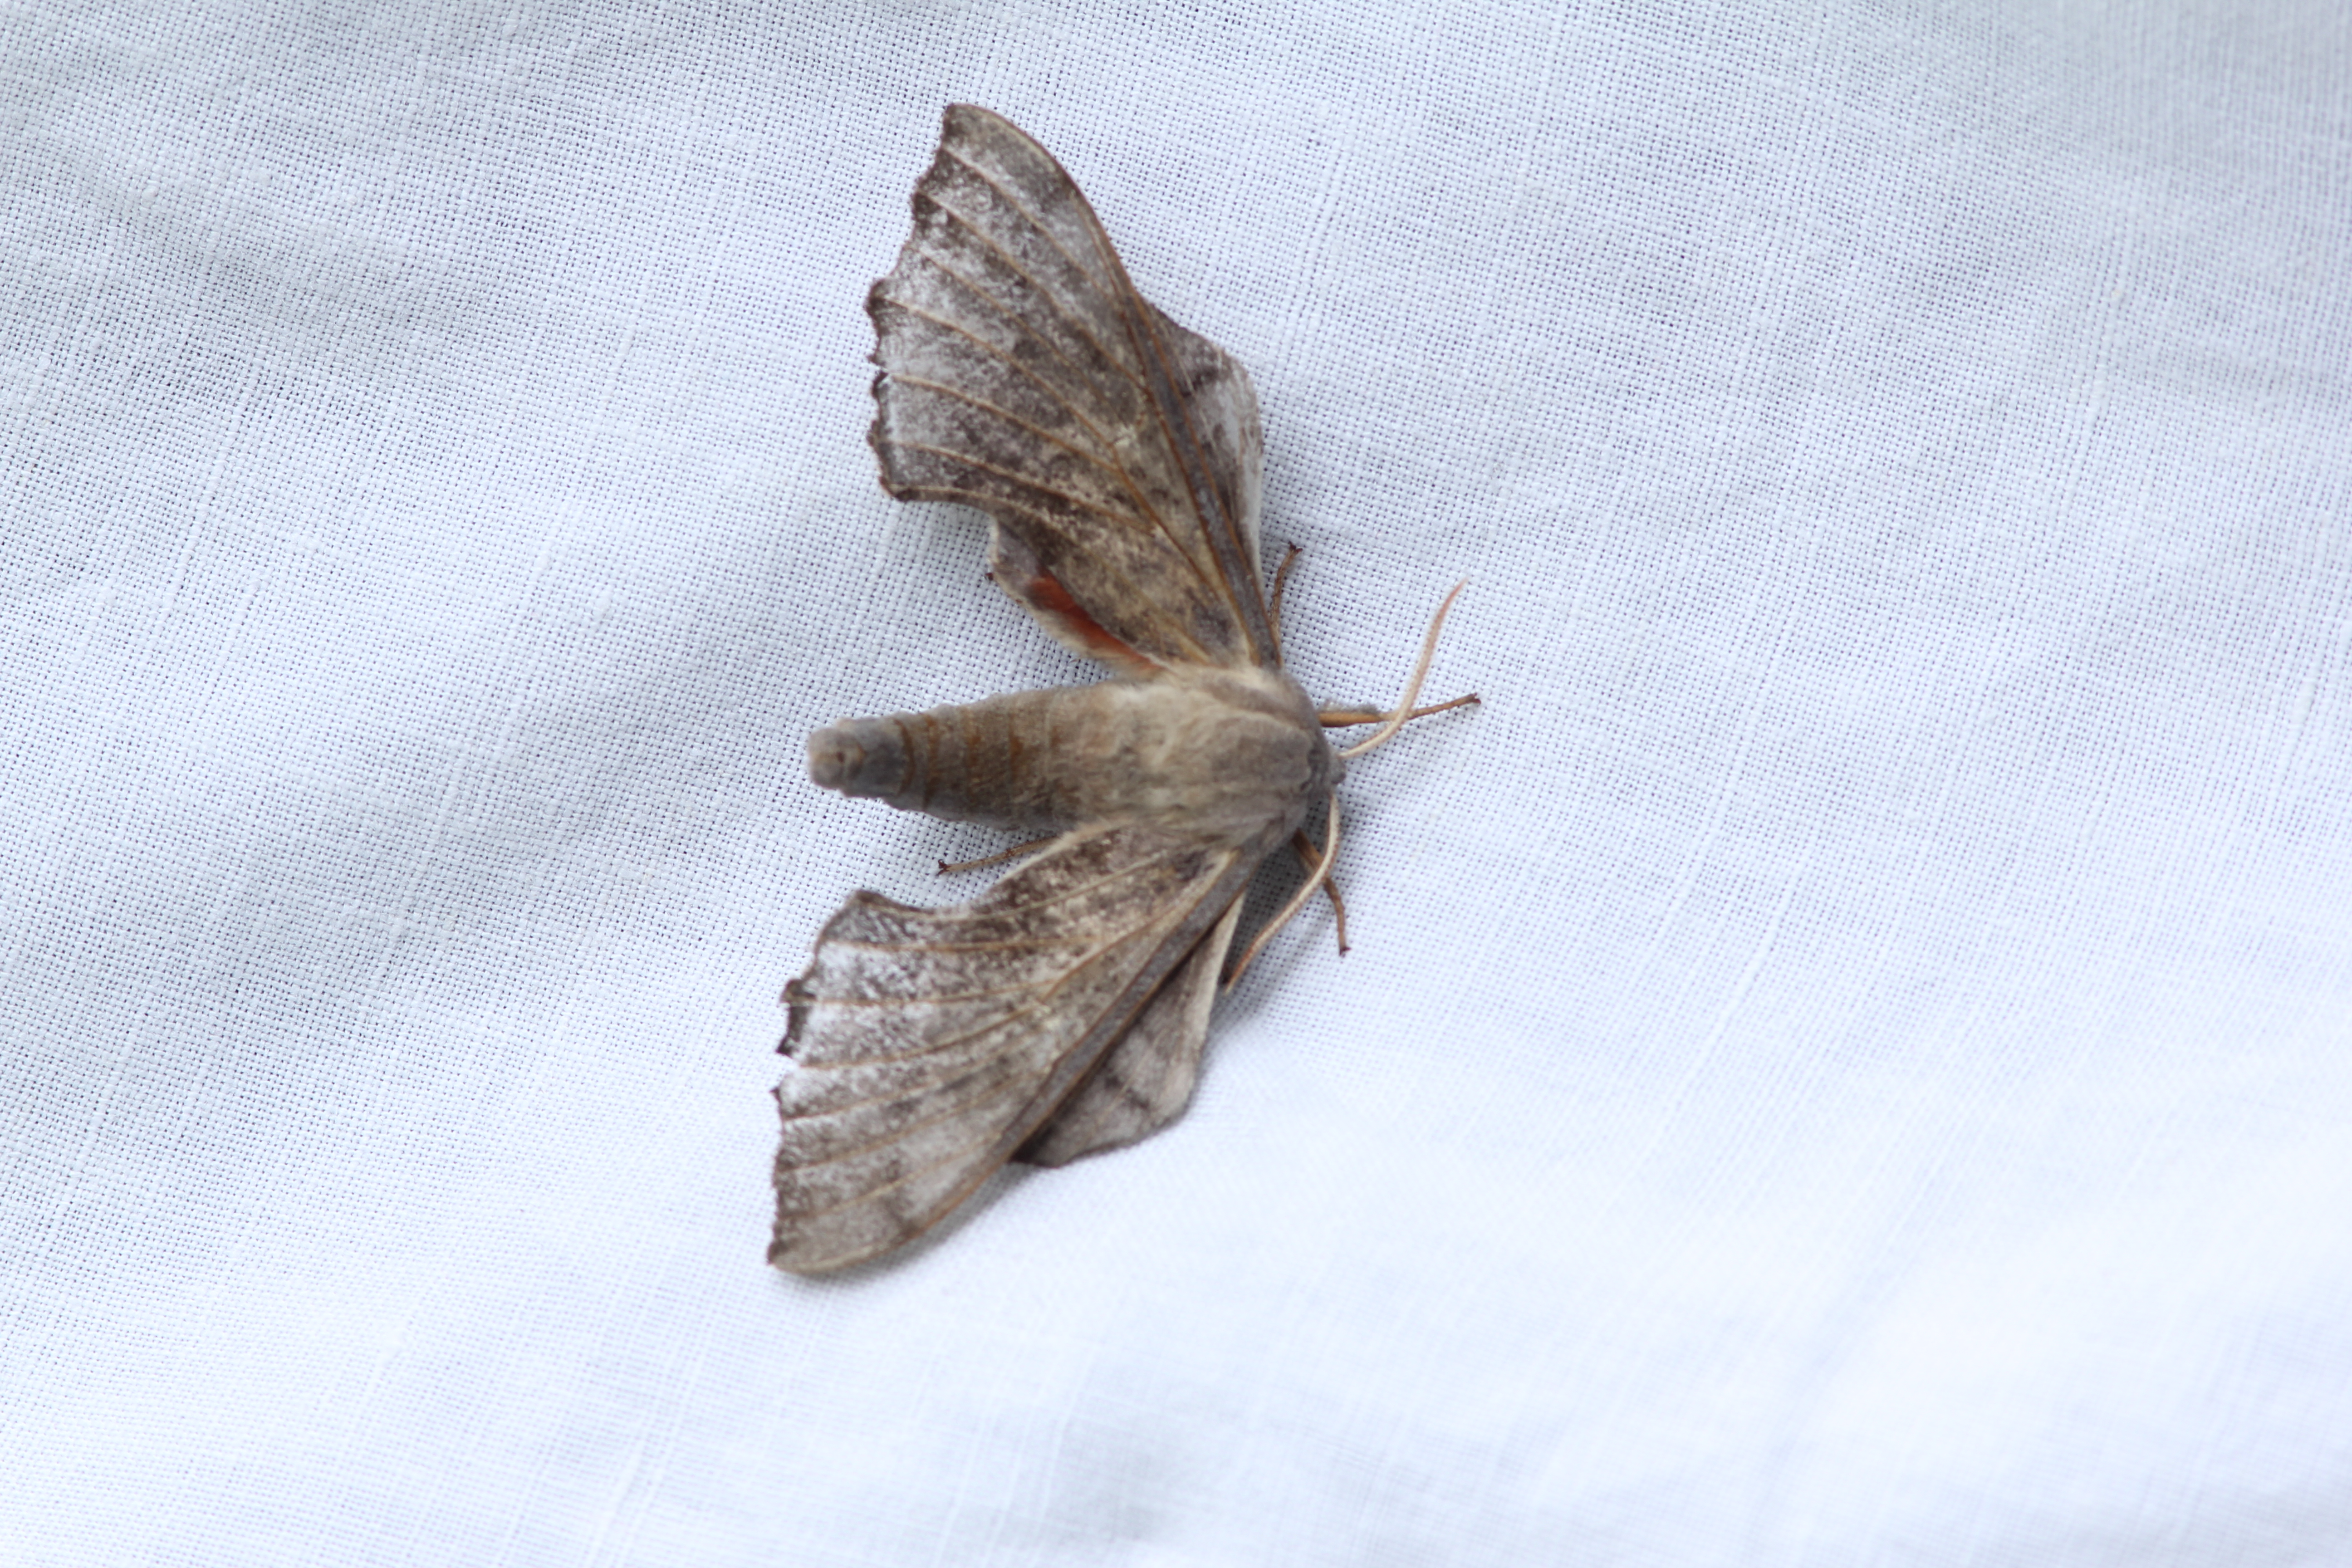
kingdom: Animalia
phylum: Arthropoda
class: Insecta
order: Lepidoptera
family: Sphingidae
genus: Laothoe
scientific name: Laothoe populi
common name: Poplar hawk-moth
